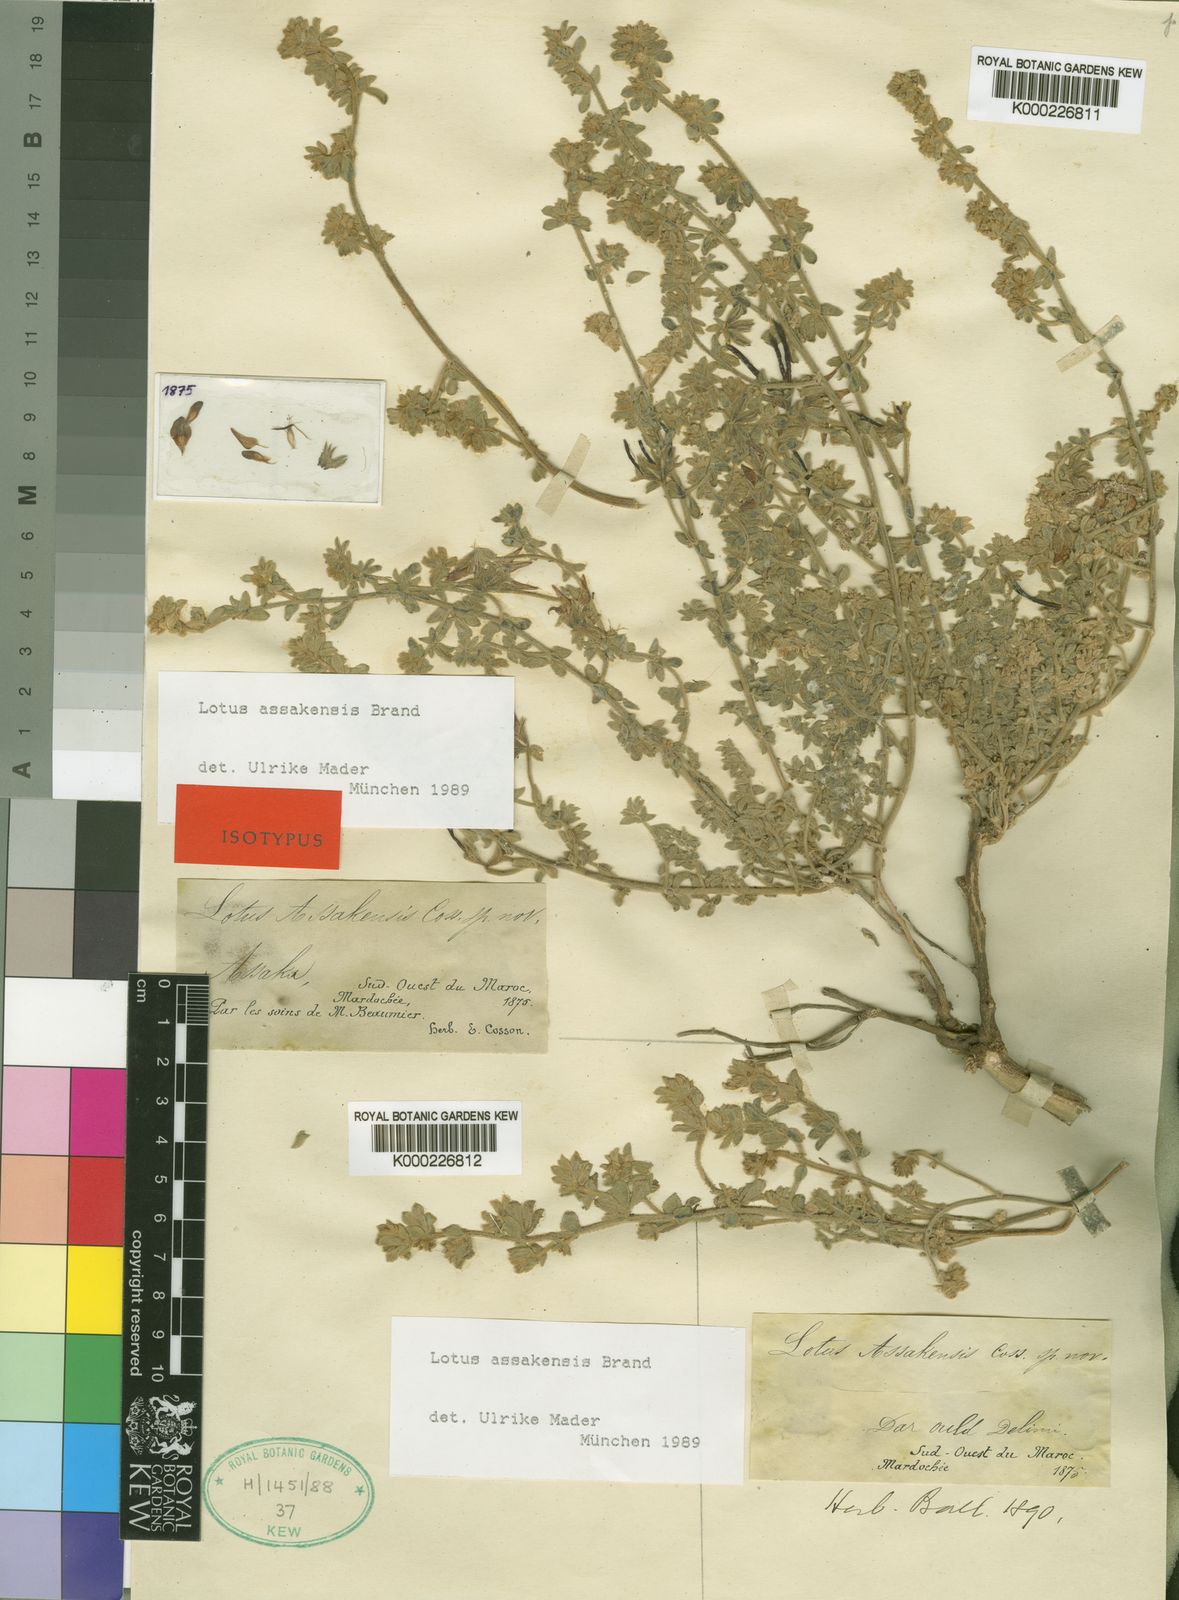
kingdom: Plantae
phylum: Tracheophyta
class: Magnoliopsida
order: Fabales
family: Fabaceae
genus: Lotus
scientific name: Lotus assakensis
